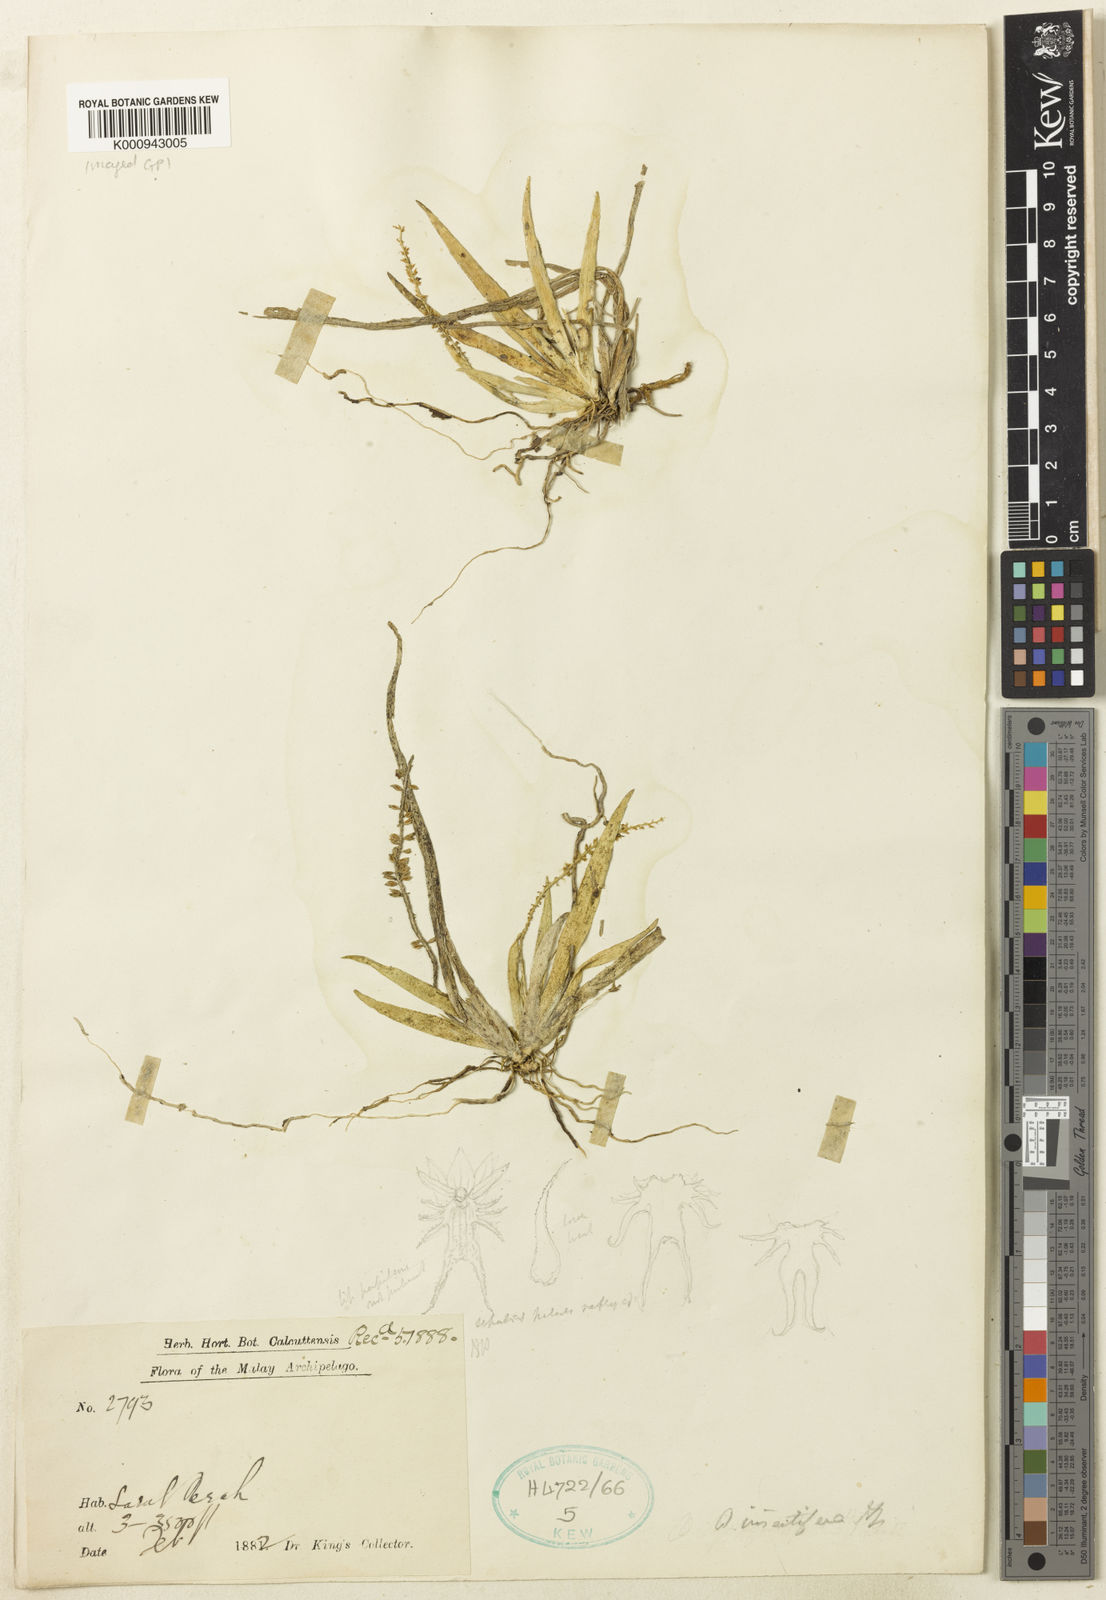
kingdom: Plantae
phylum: Tracheophyta
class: Liliopsida
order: Asparagales
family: Orchidaceae
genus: Oberonia
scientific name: Oberonia insectifera
